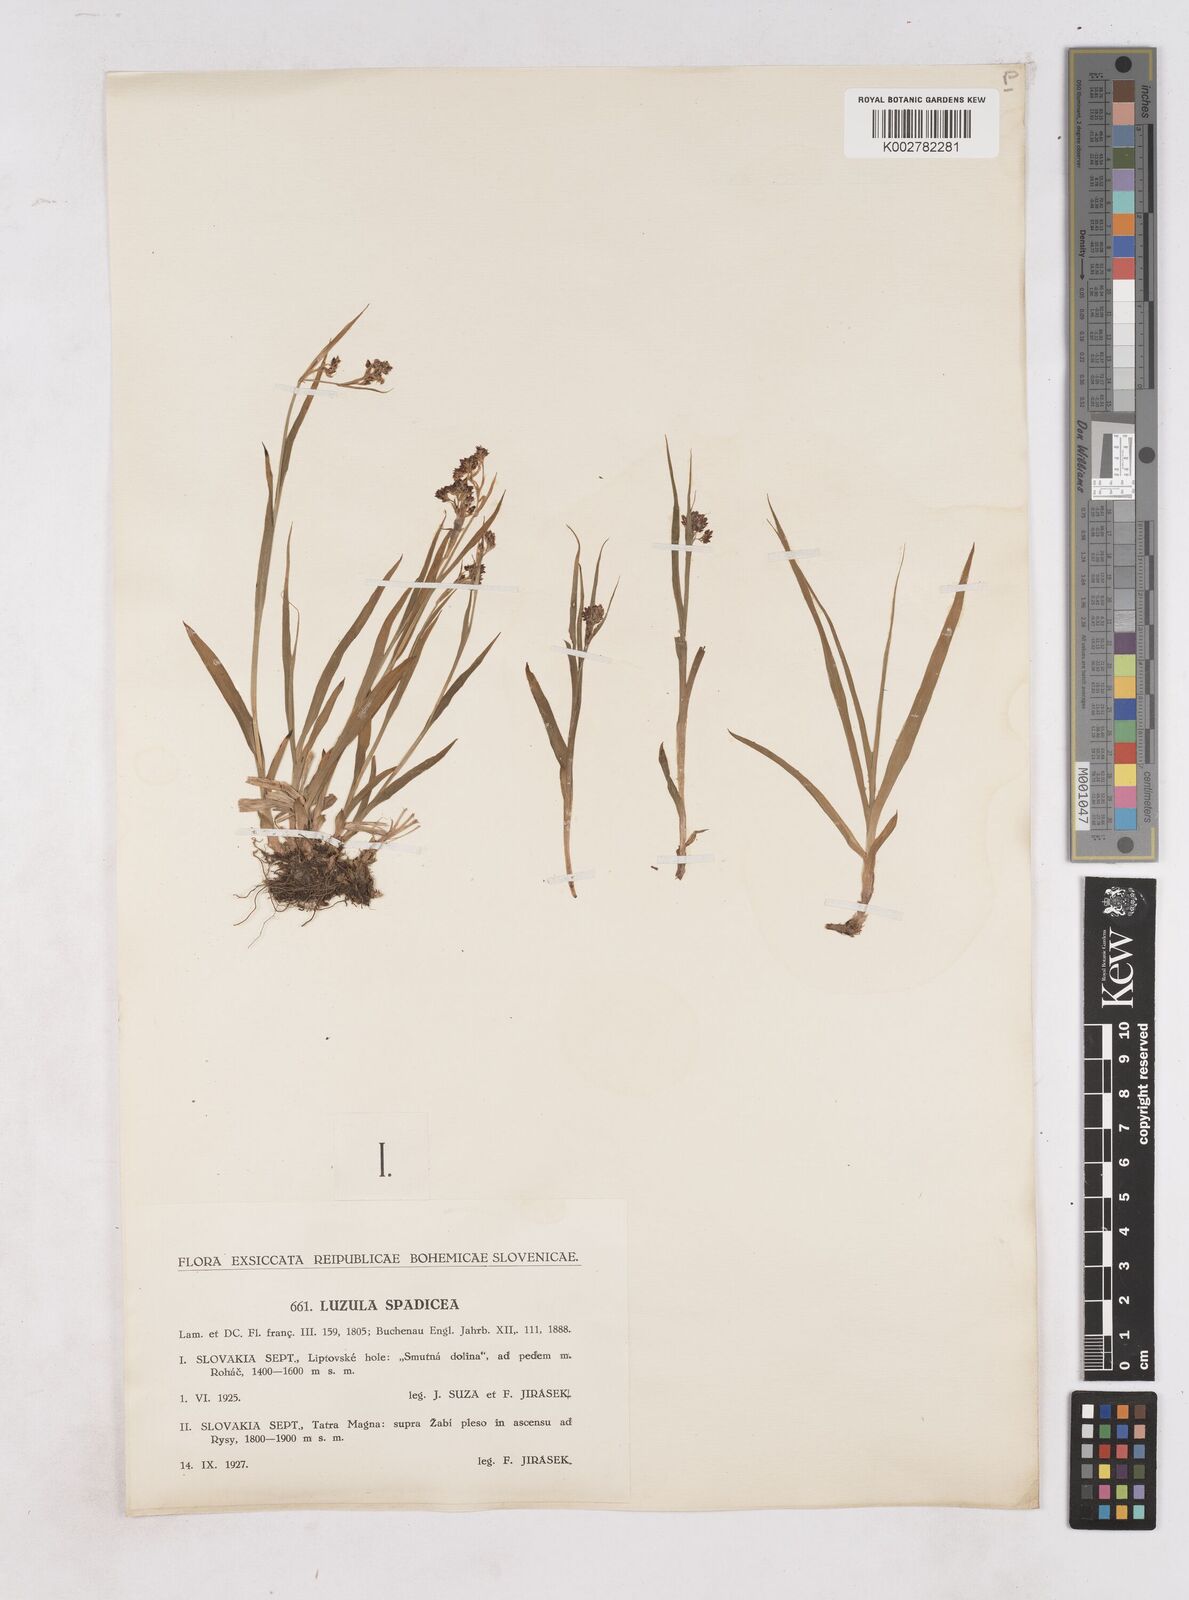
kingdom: Plantae
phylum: Tracheophyta
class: Liliopsida
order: Poales
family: Juncaceae
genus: Luzula
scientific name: Luzula alpinopilosa
